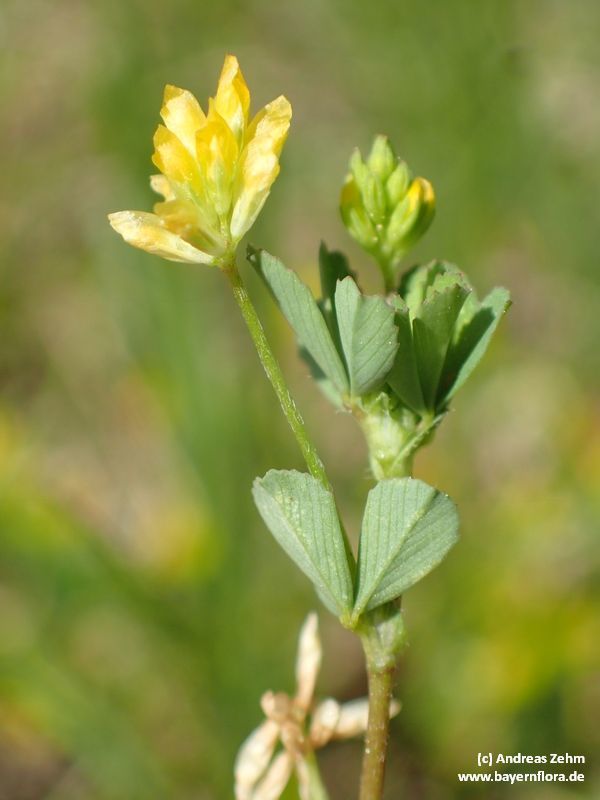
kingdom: Plantae
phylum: Tracheophyta
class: Magnoliopsida
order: Fabales
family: Fabaceae
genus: Trifolium
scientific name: Trifolium dubium
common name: Suckling clover
